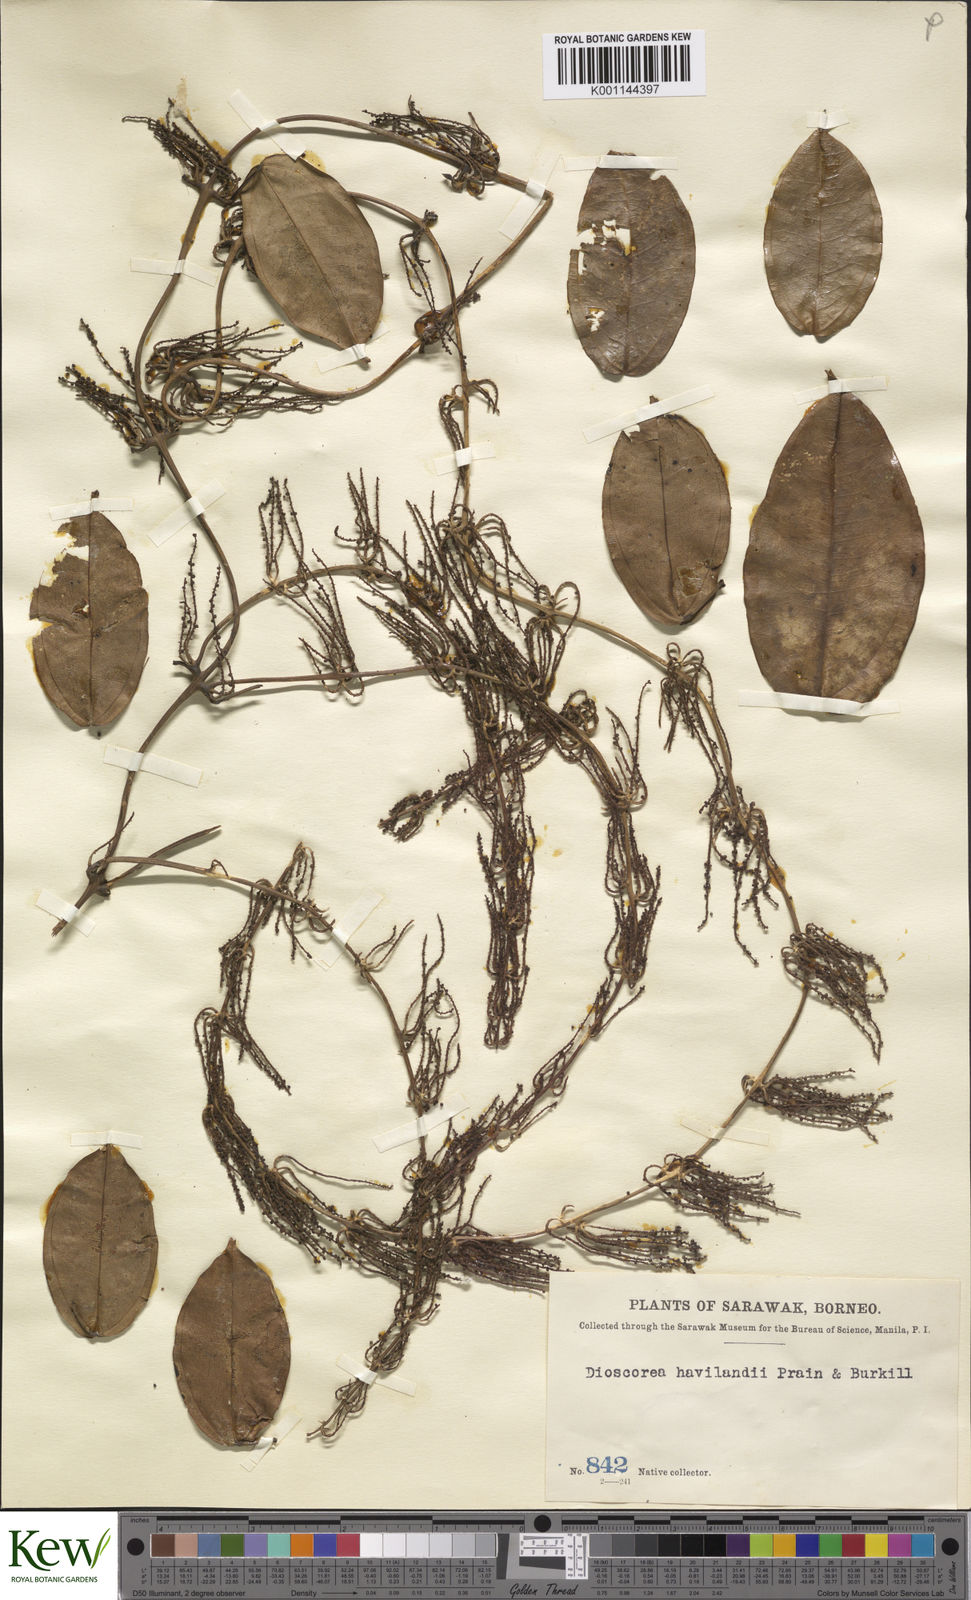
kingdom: Plantae
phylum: Tracheophyta
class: Liliopsida
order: Dioscoreales
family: Dioscoreaceae
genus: Dioscorea
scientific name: Dioscorea havilandii
